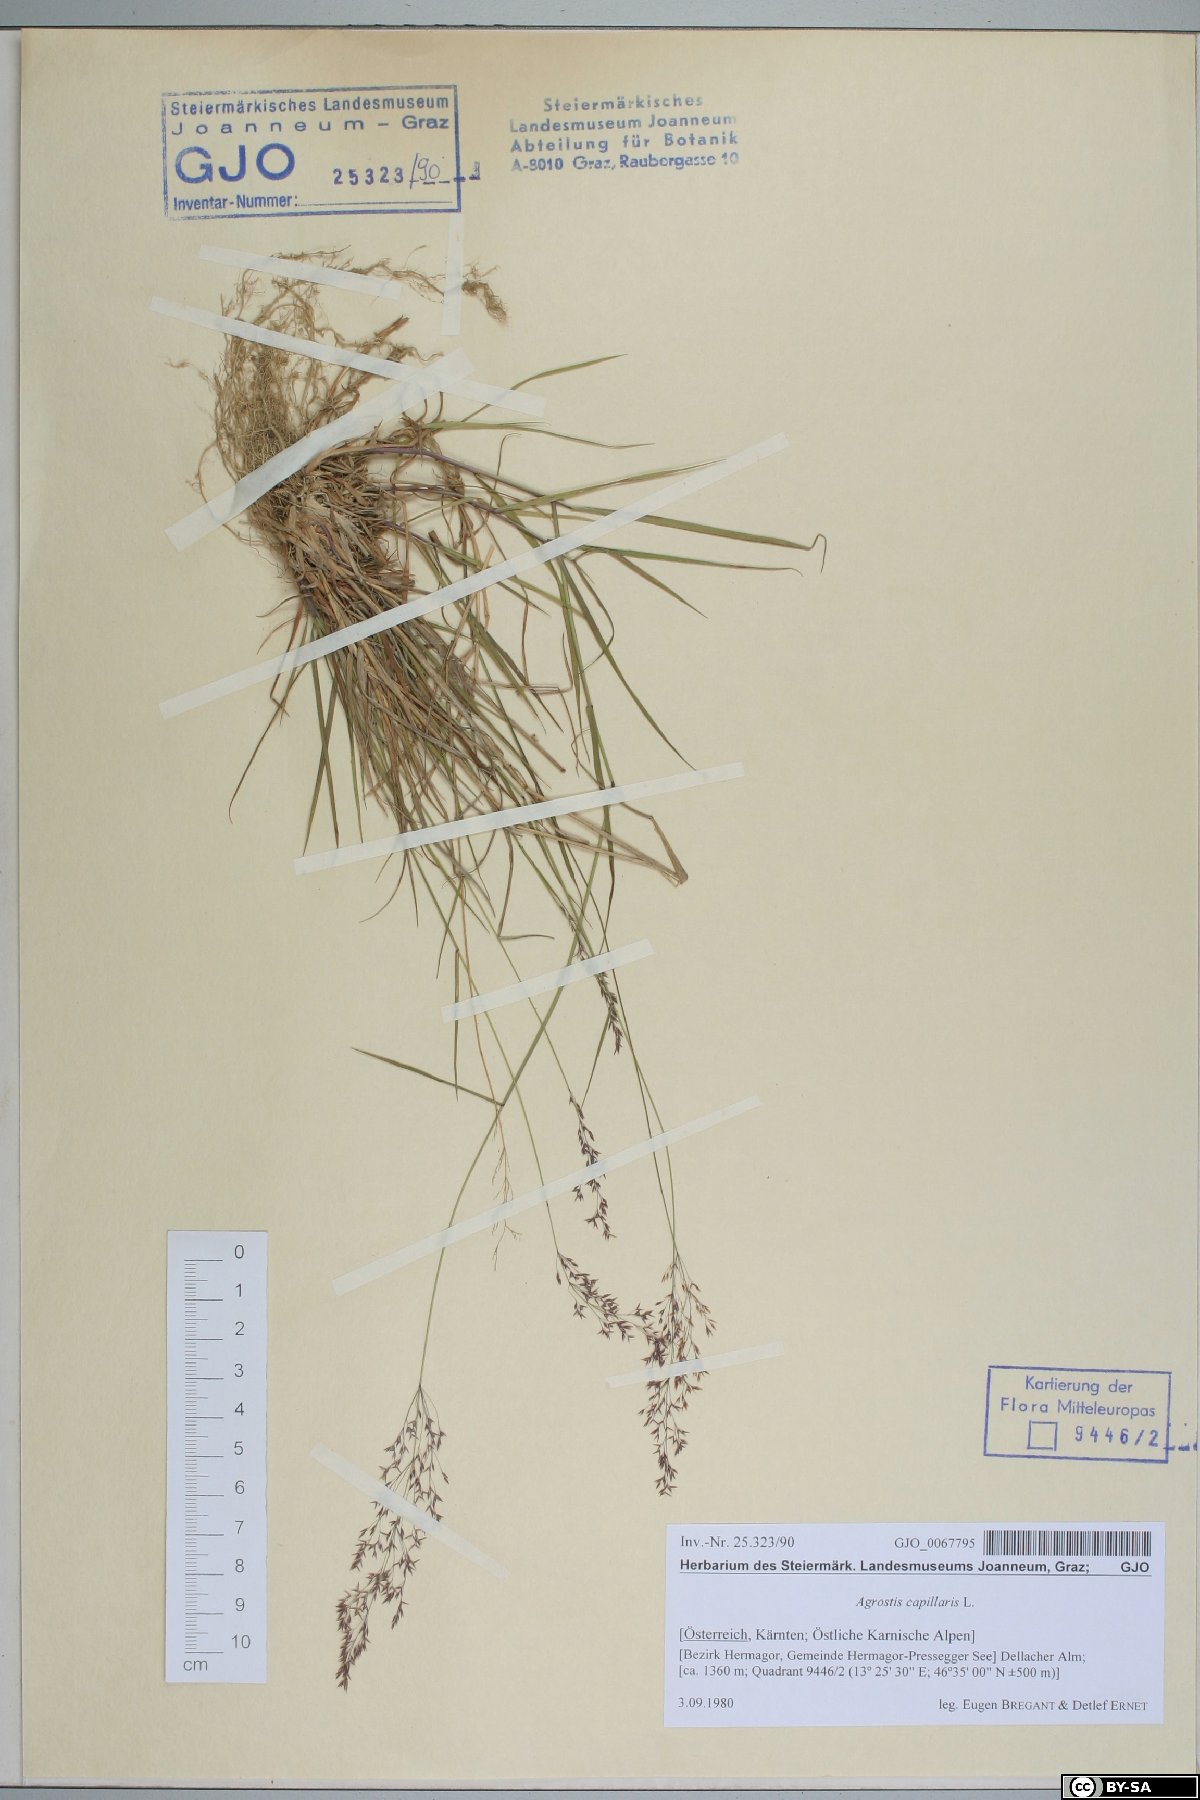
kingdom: Plantae
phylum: Tracheophyta
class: Liliopsida
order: Poales
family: Poaceae
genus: Agrostis
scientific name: Agrostis capillaris
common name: Colonial bentgrass
